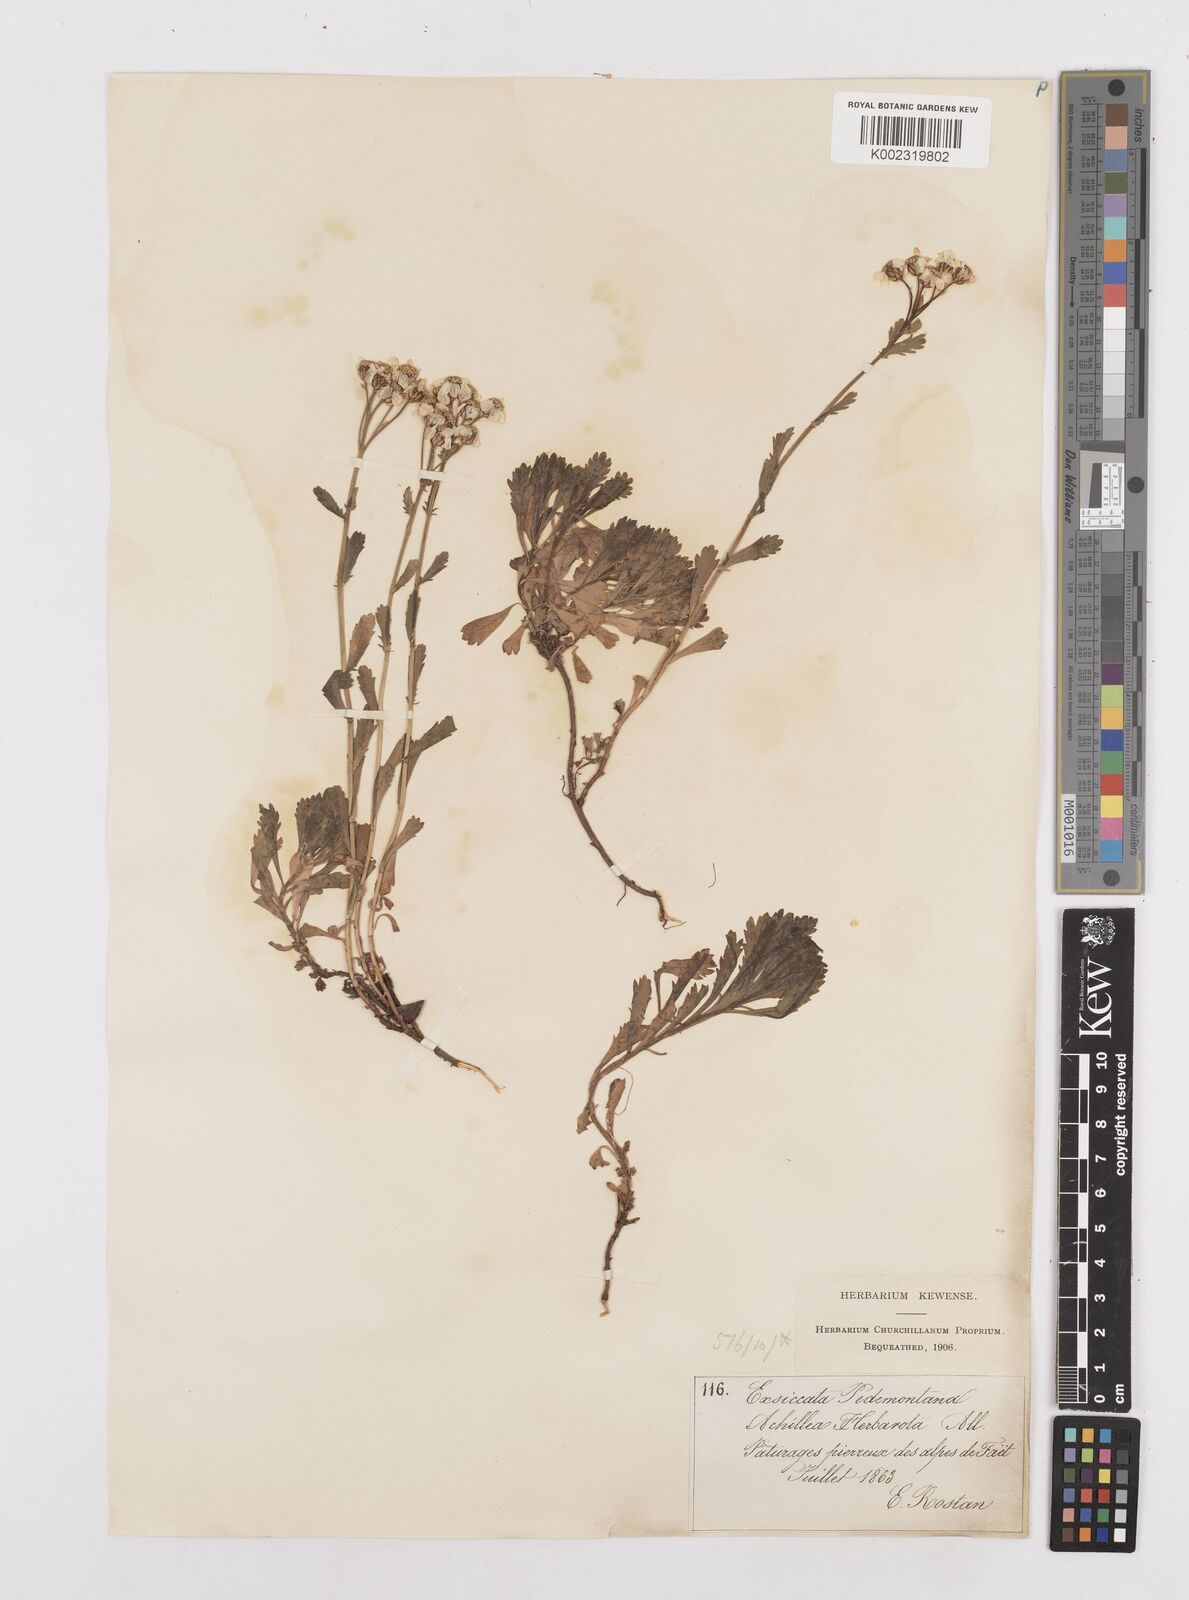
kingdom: Plantae
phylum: Tracheophyta
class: Magnoliopsida
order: Asterales
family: Asteraceae
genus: Achillea
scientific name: Achillea erba-rotta
